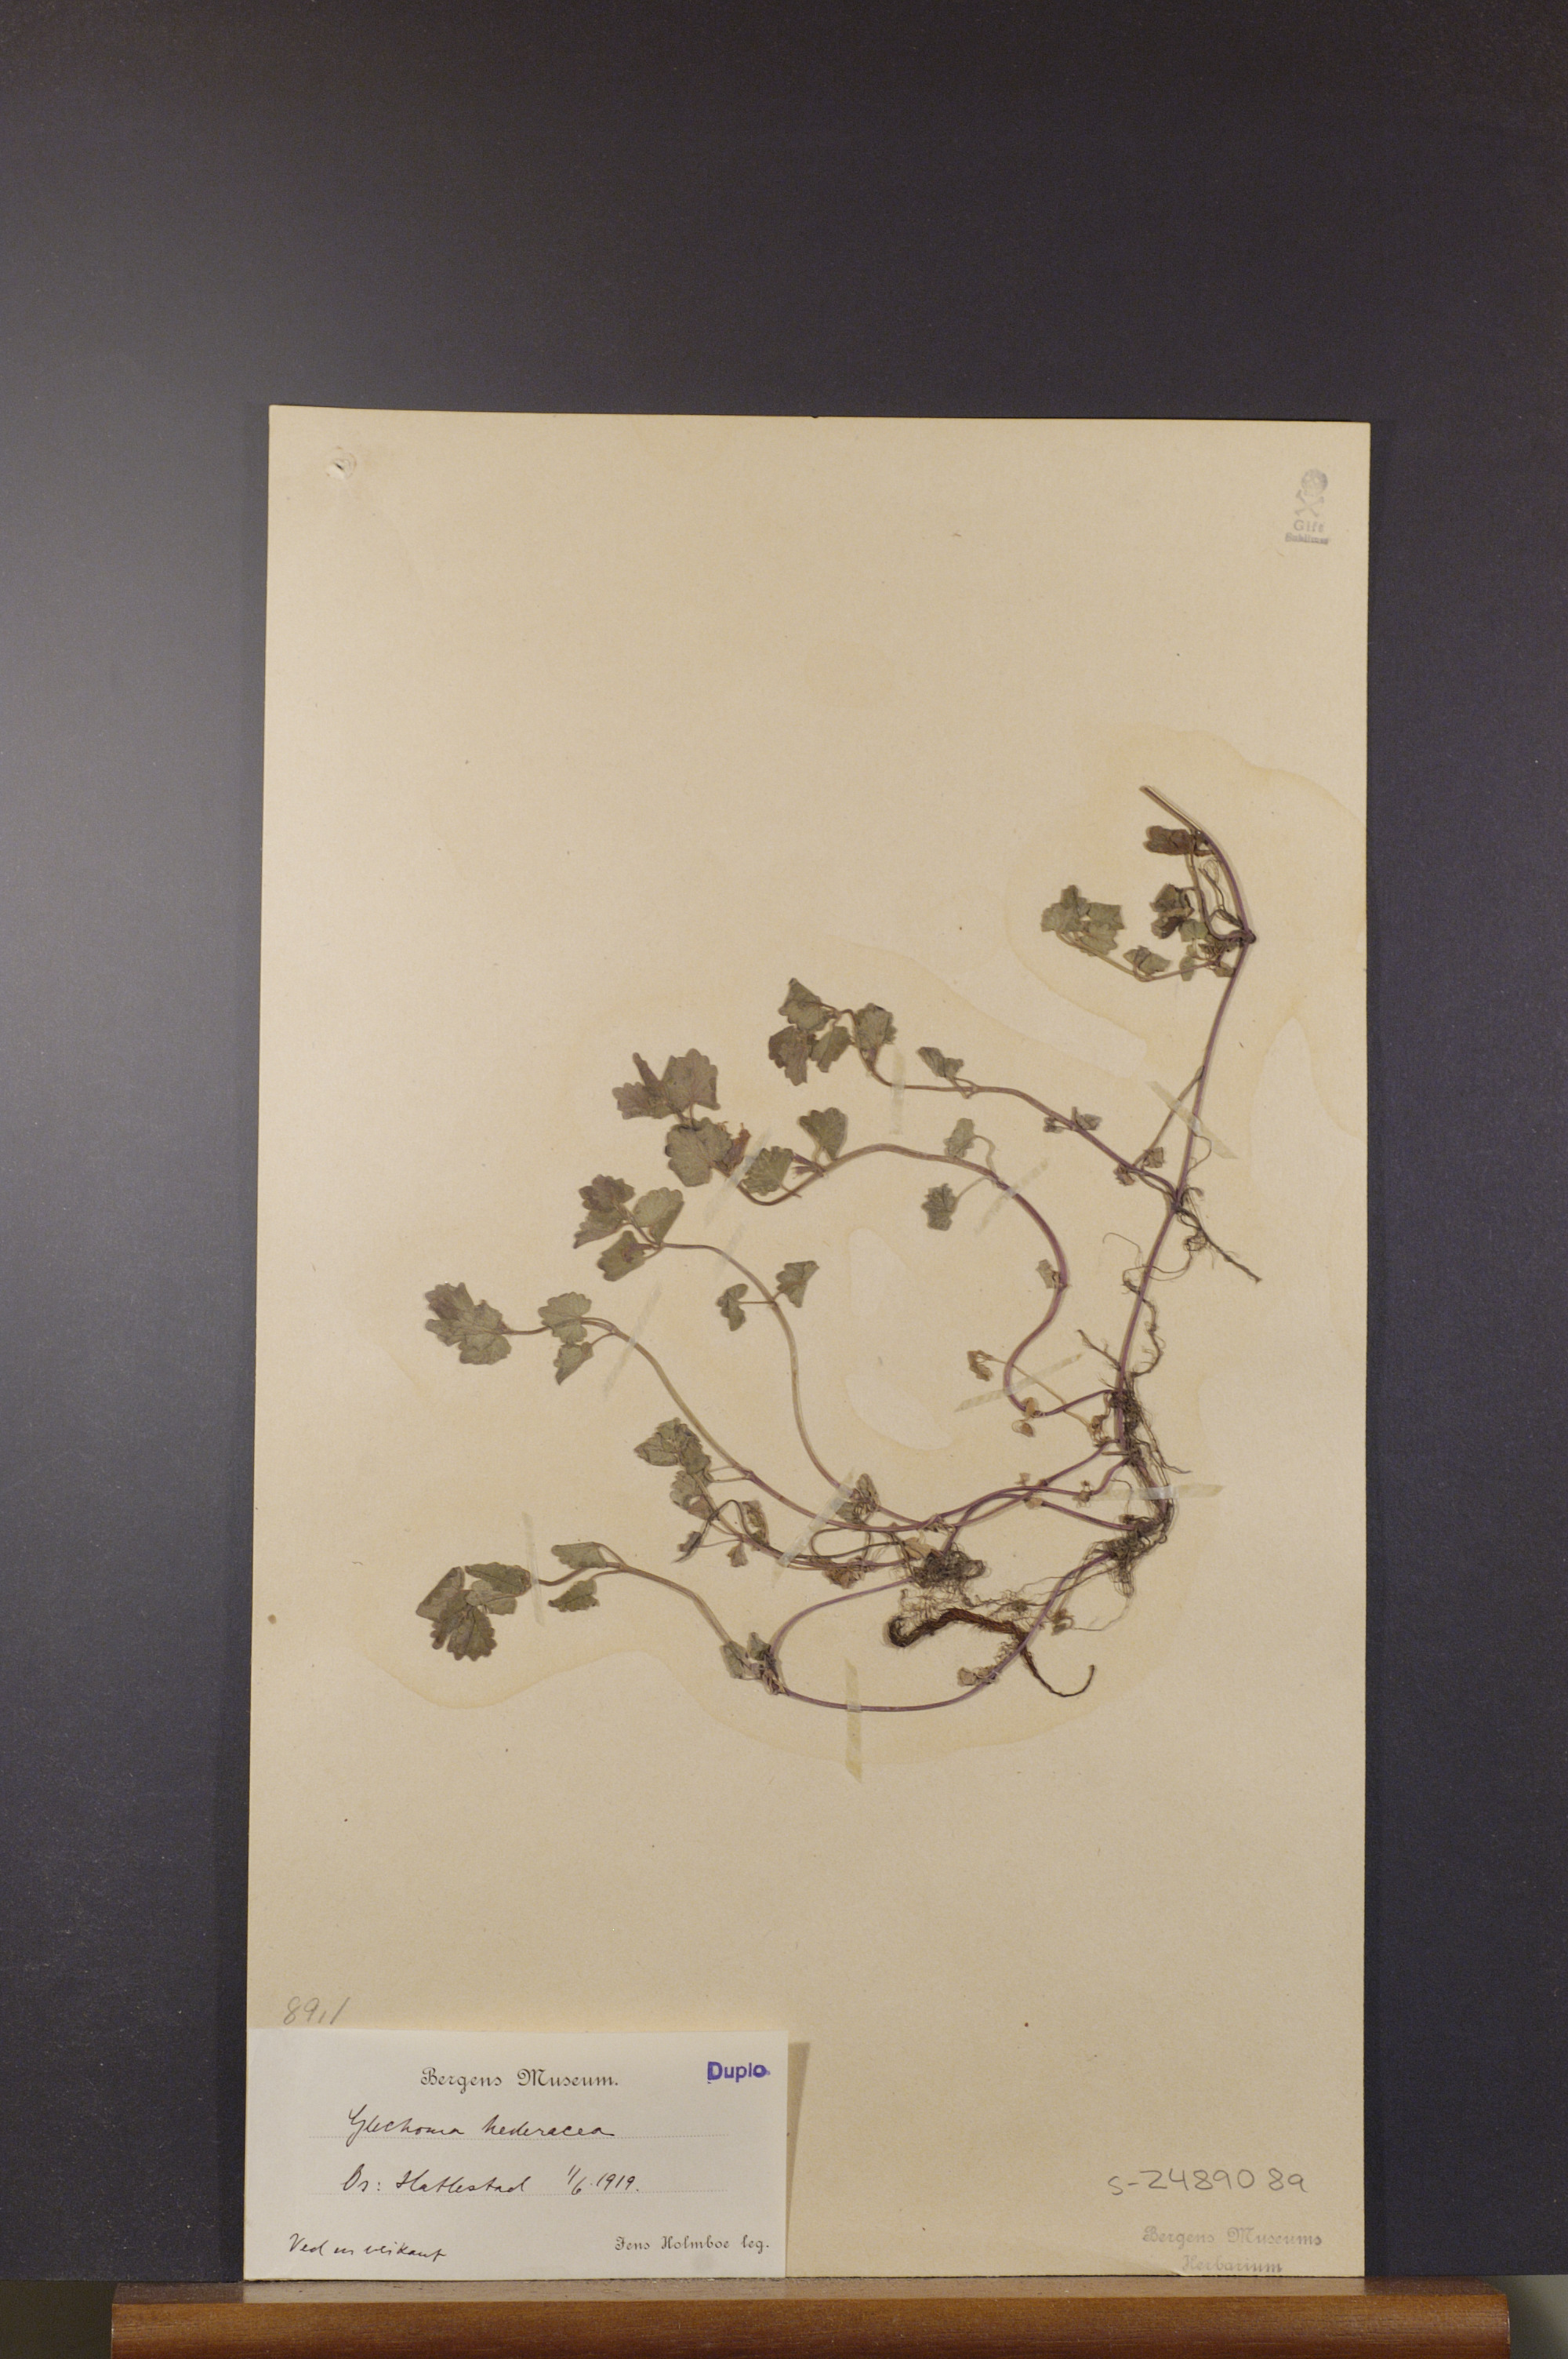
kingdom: Plantae
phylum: Tracheophyta
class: Magnoliopsida
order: Lamiales
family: Lamiaceae
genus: Glechoma
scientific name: Glechoma hederacea
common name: Ground ivy
